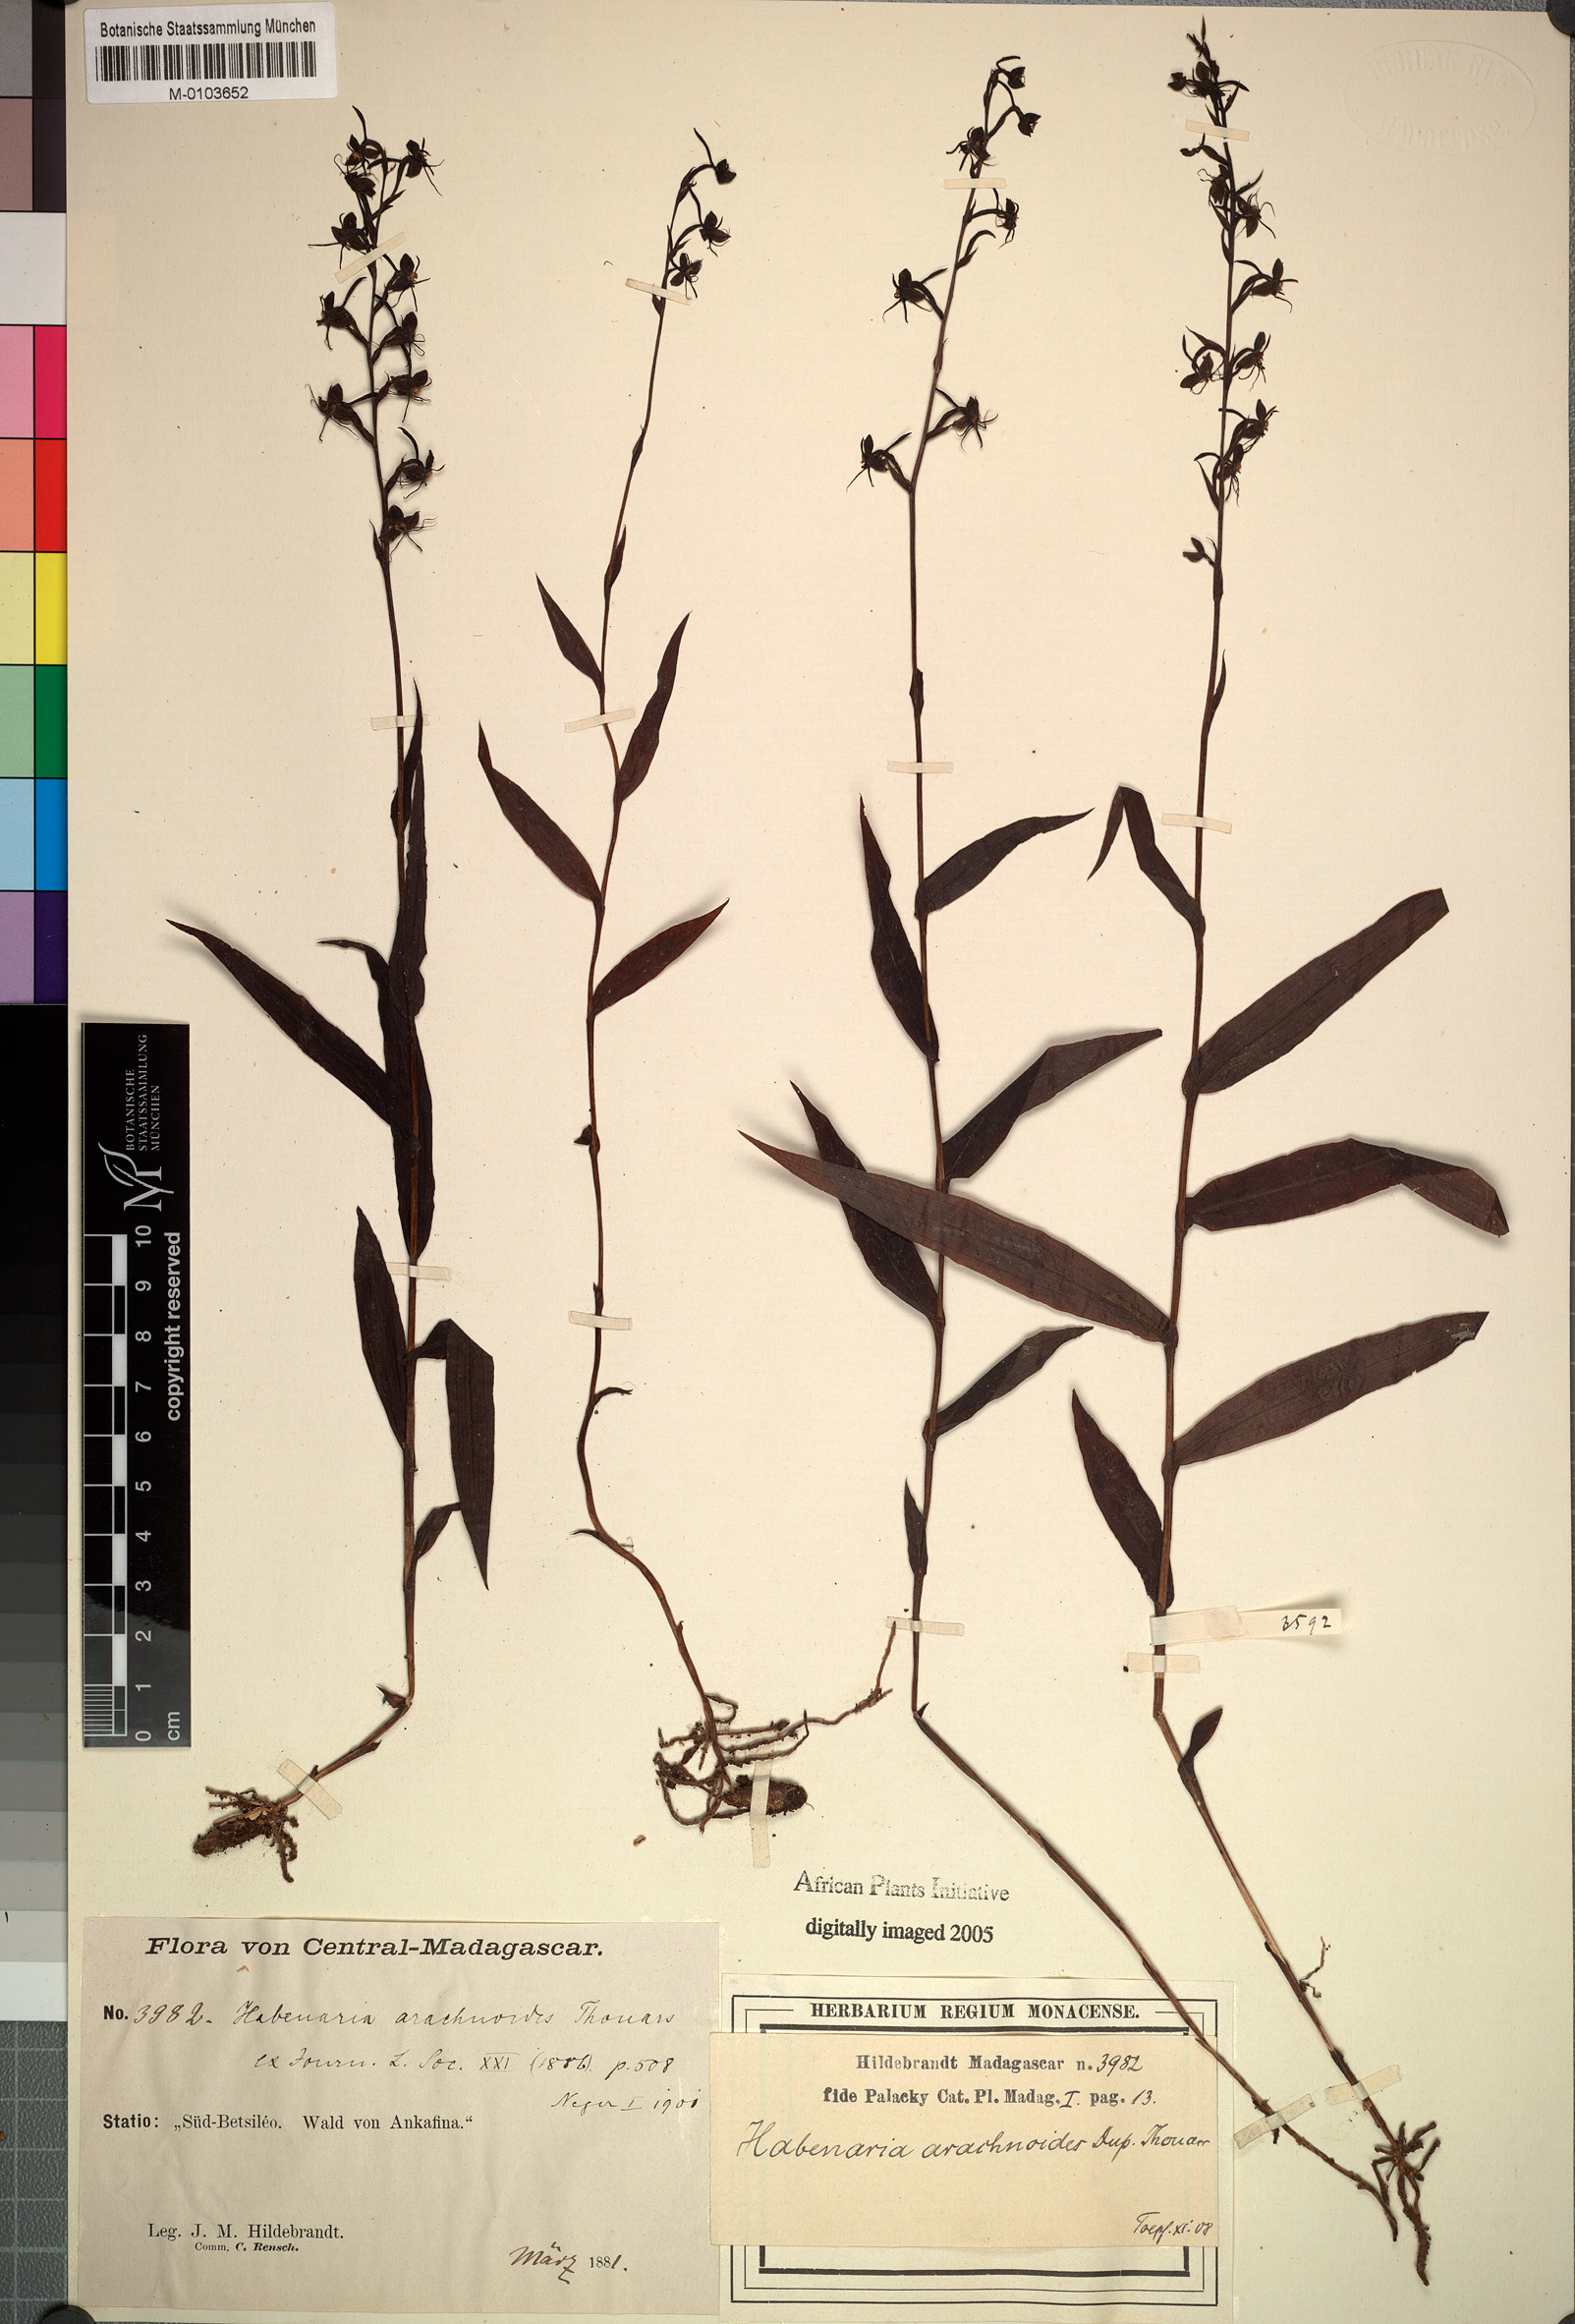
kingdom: Plantae
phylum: Tracheophyta
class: Liliopsida
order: Asparagales
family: Orchidaceae
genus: Habenaria
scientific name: Habenaria arachnoides
